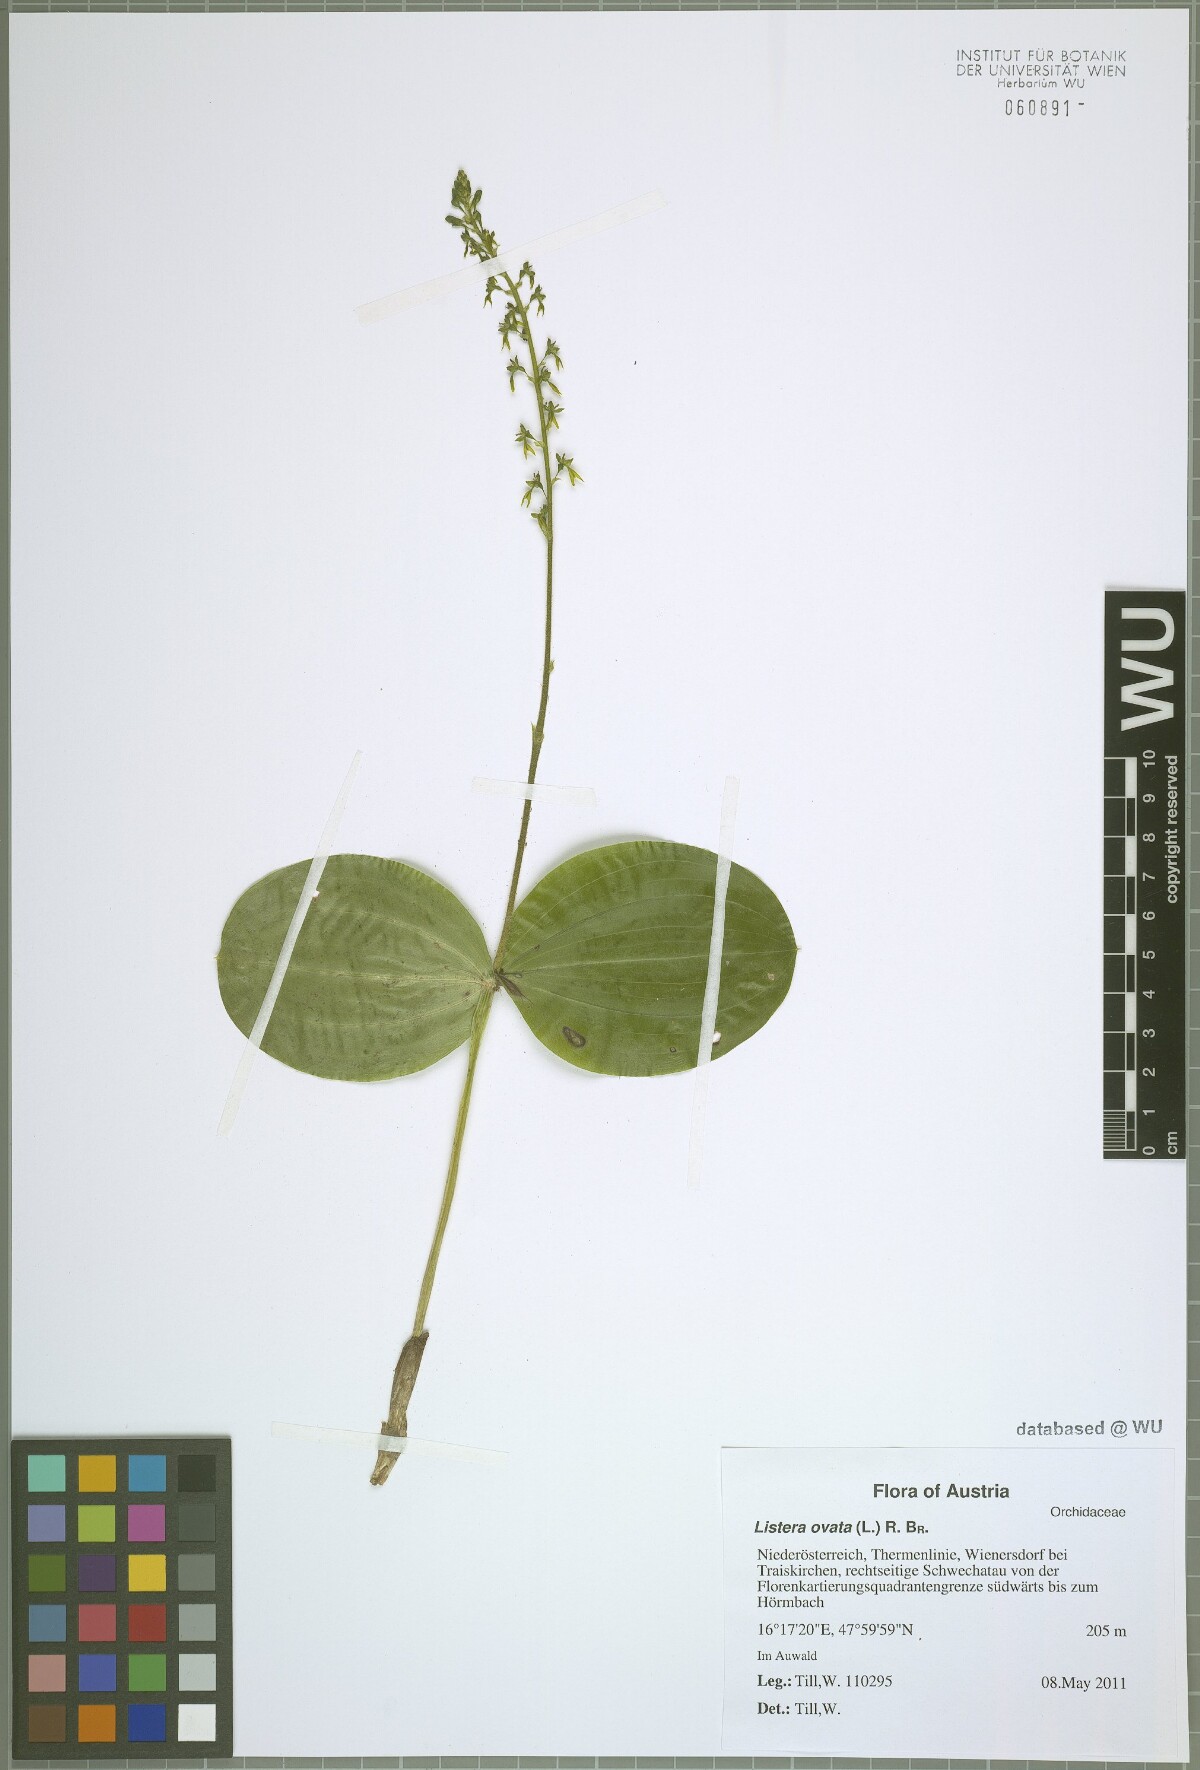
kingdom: Plantae
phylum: Tracheophyta
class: Liliopsida
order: Asparagales
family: Orchidaceae
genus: Neottia
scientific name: Neottia ovata
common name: Common twayblade
